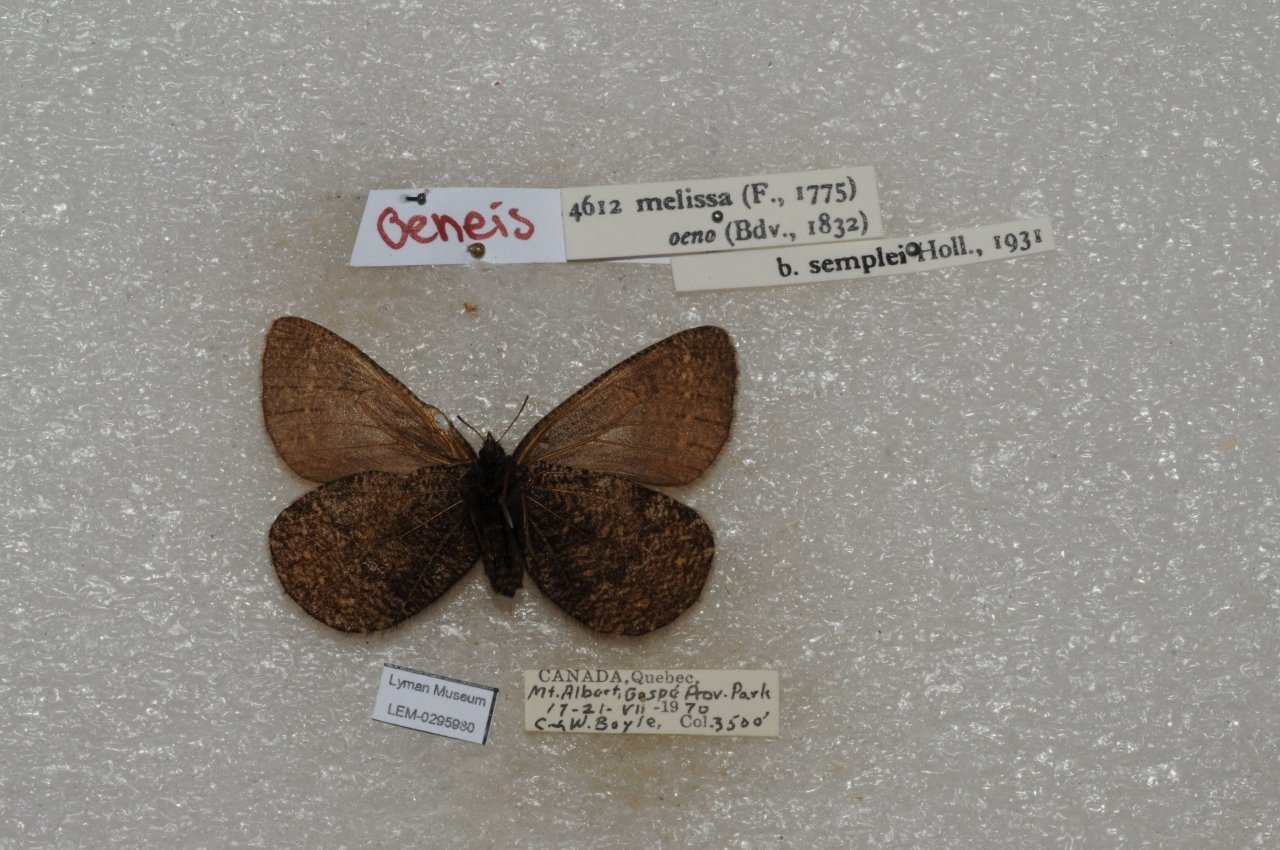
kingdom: Animalia
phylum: Arthropoda
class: Insecta
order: Lepidoptera
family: Nymphalidae
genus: Oeneis
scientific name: Oeneis melissa
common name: Melissa Arctic
